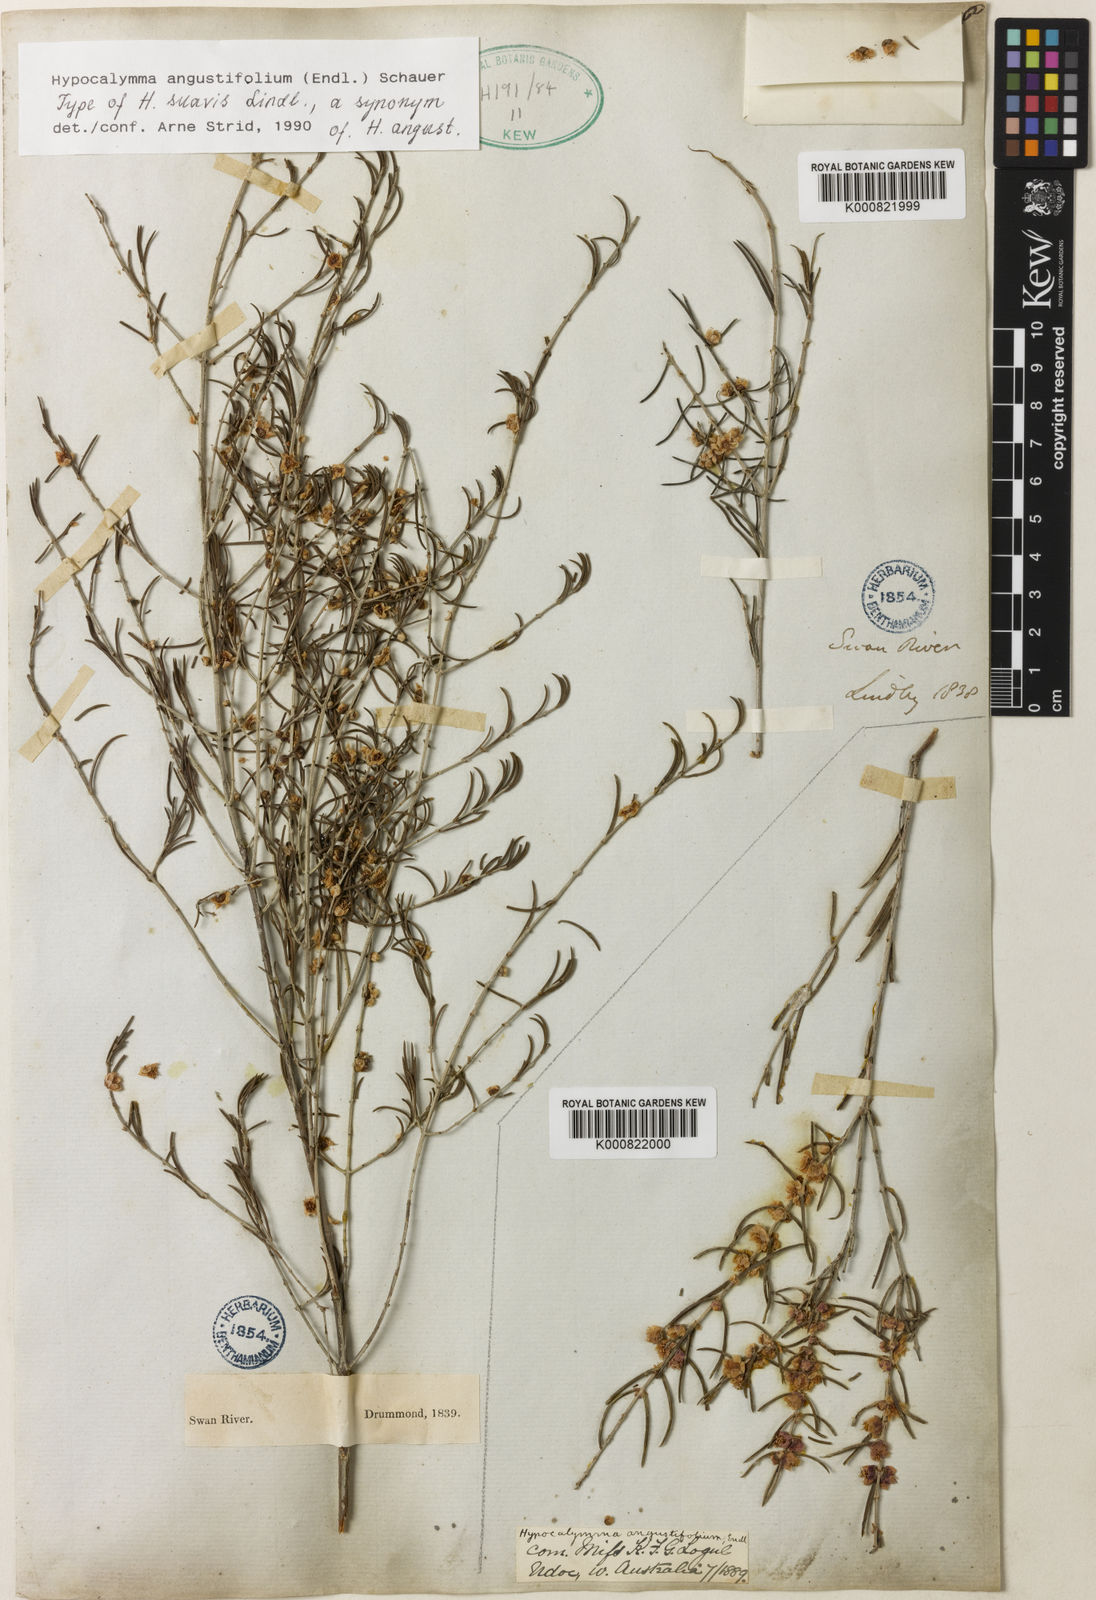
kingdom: Plantae
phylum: Tracheophyta
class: Magnoliopsida
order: Myrtales
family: Myrtaceae
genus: Hypocalymma
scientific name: Hypocalymma angustifolium
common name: White myrtle
